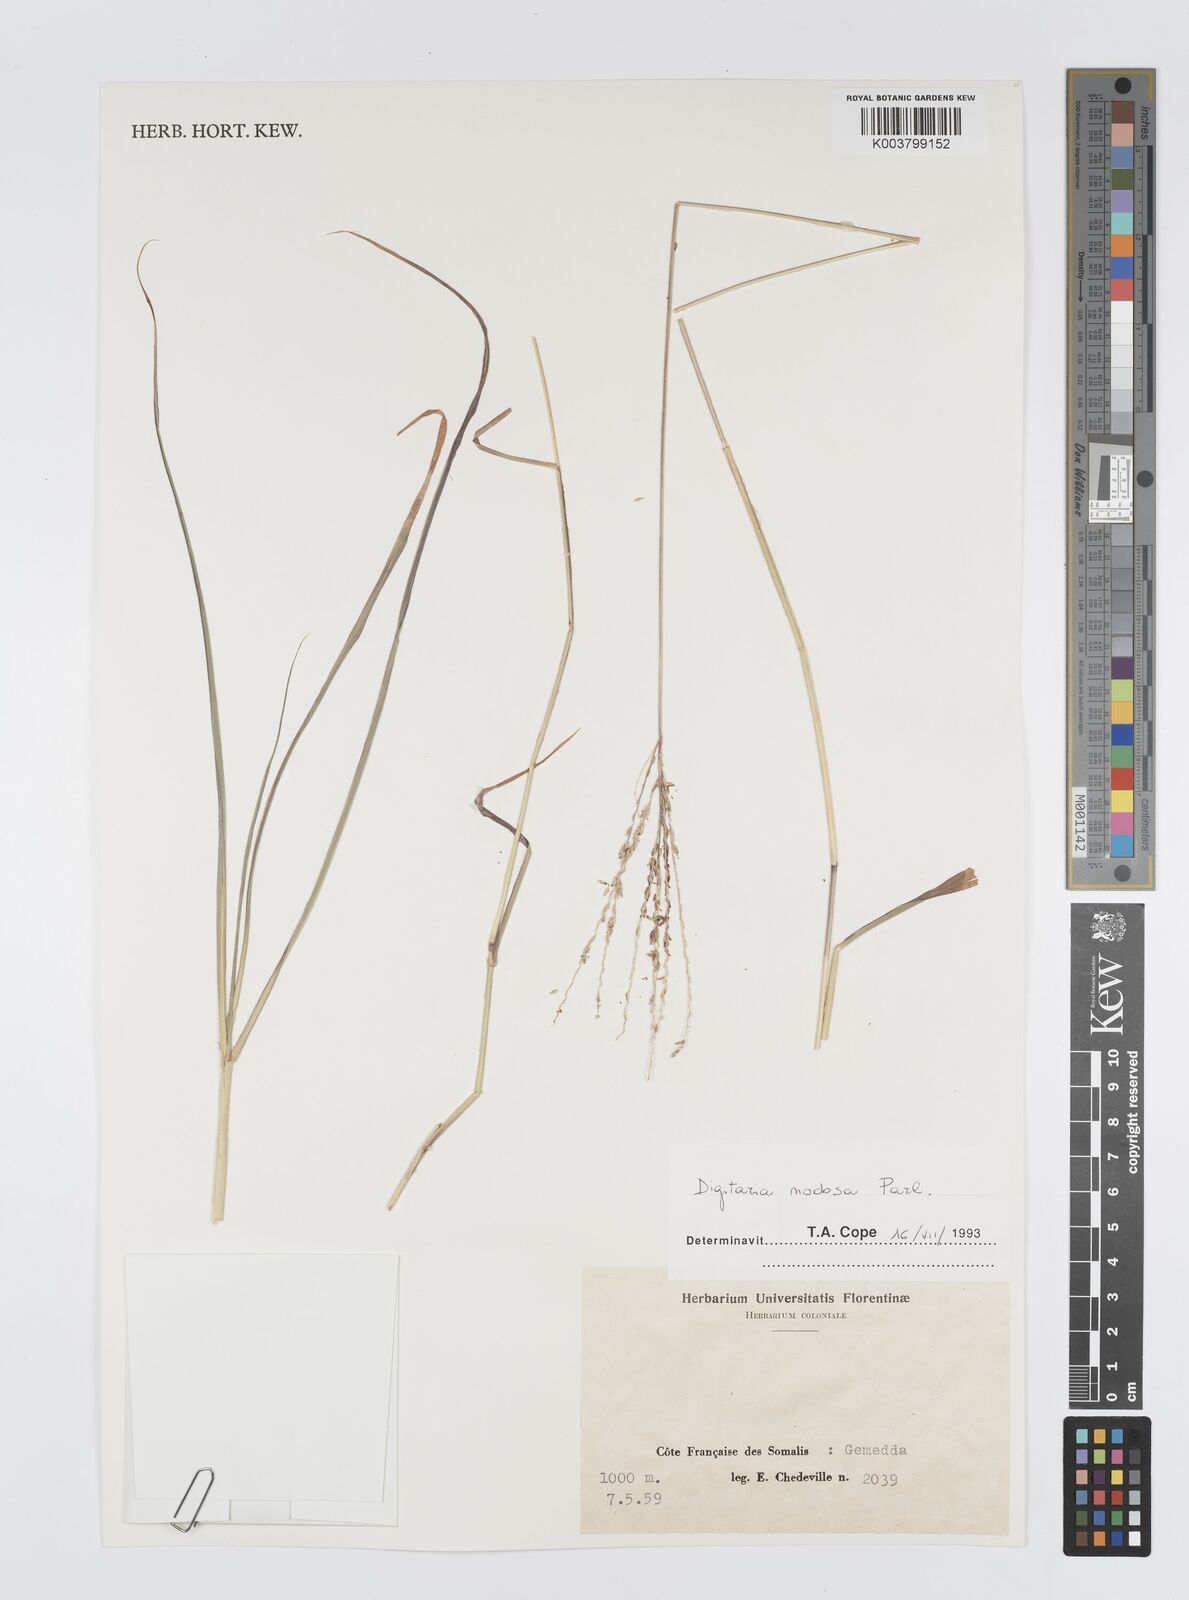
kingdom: Plantae
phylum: Tracheophyta
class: Liliopsida
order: Poales
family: Poaceae
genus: Digitaria
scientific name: Digitaria nodosa
